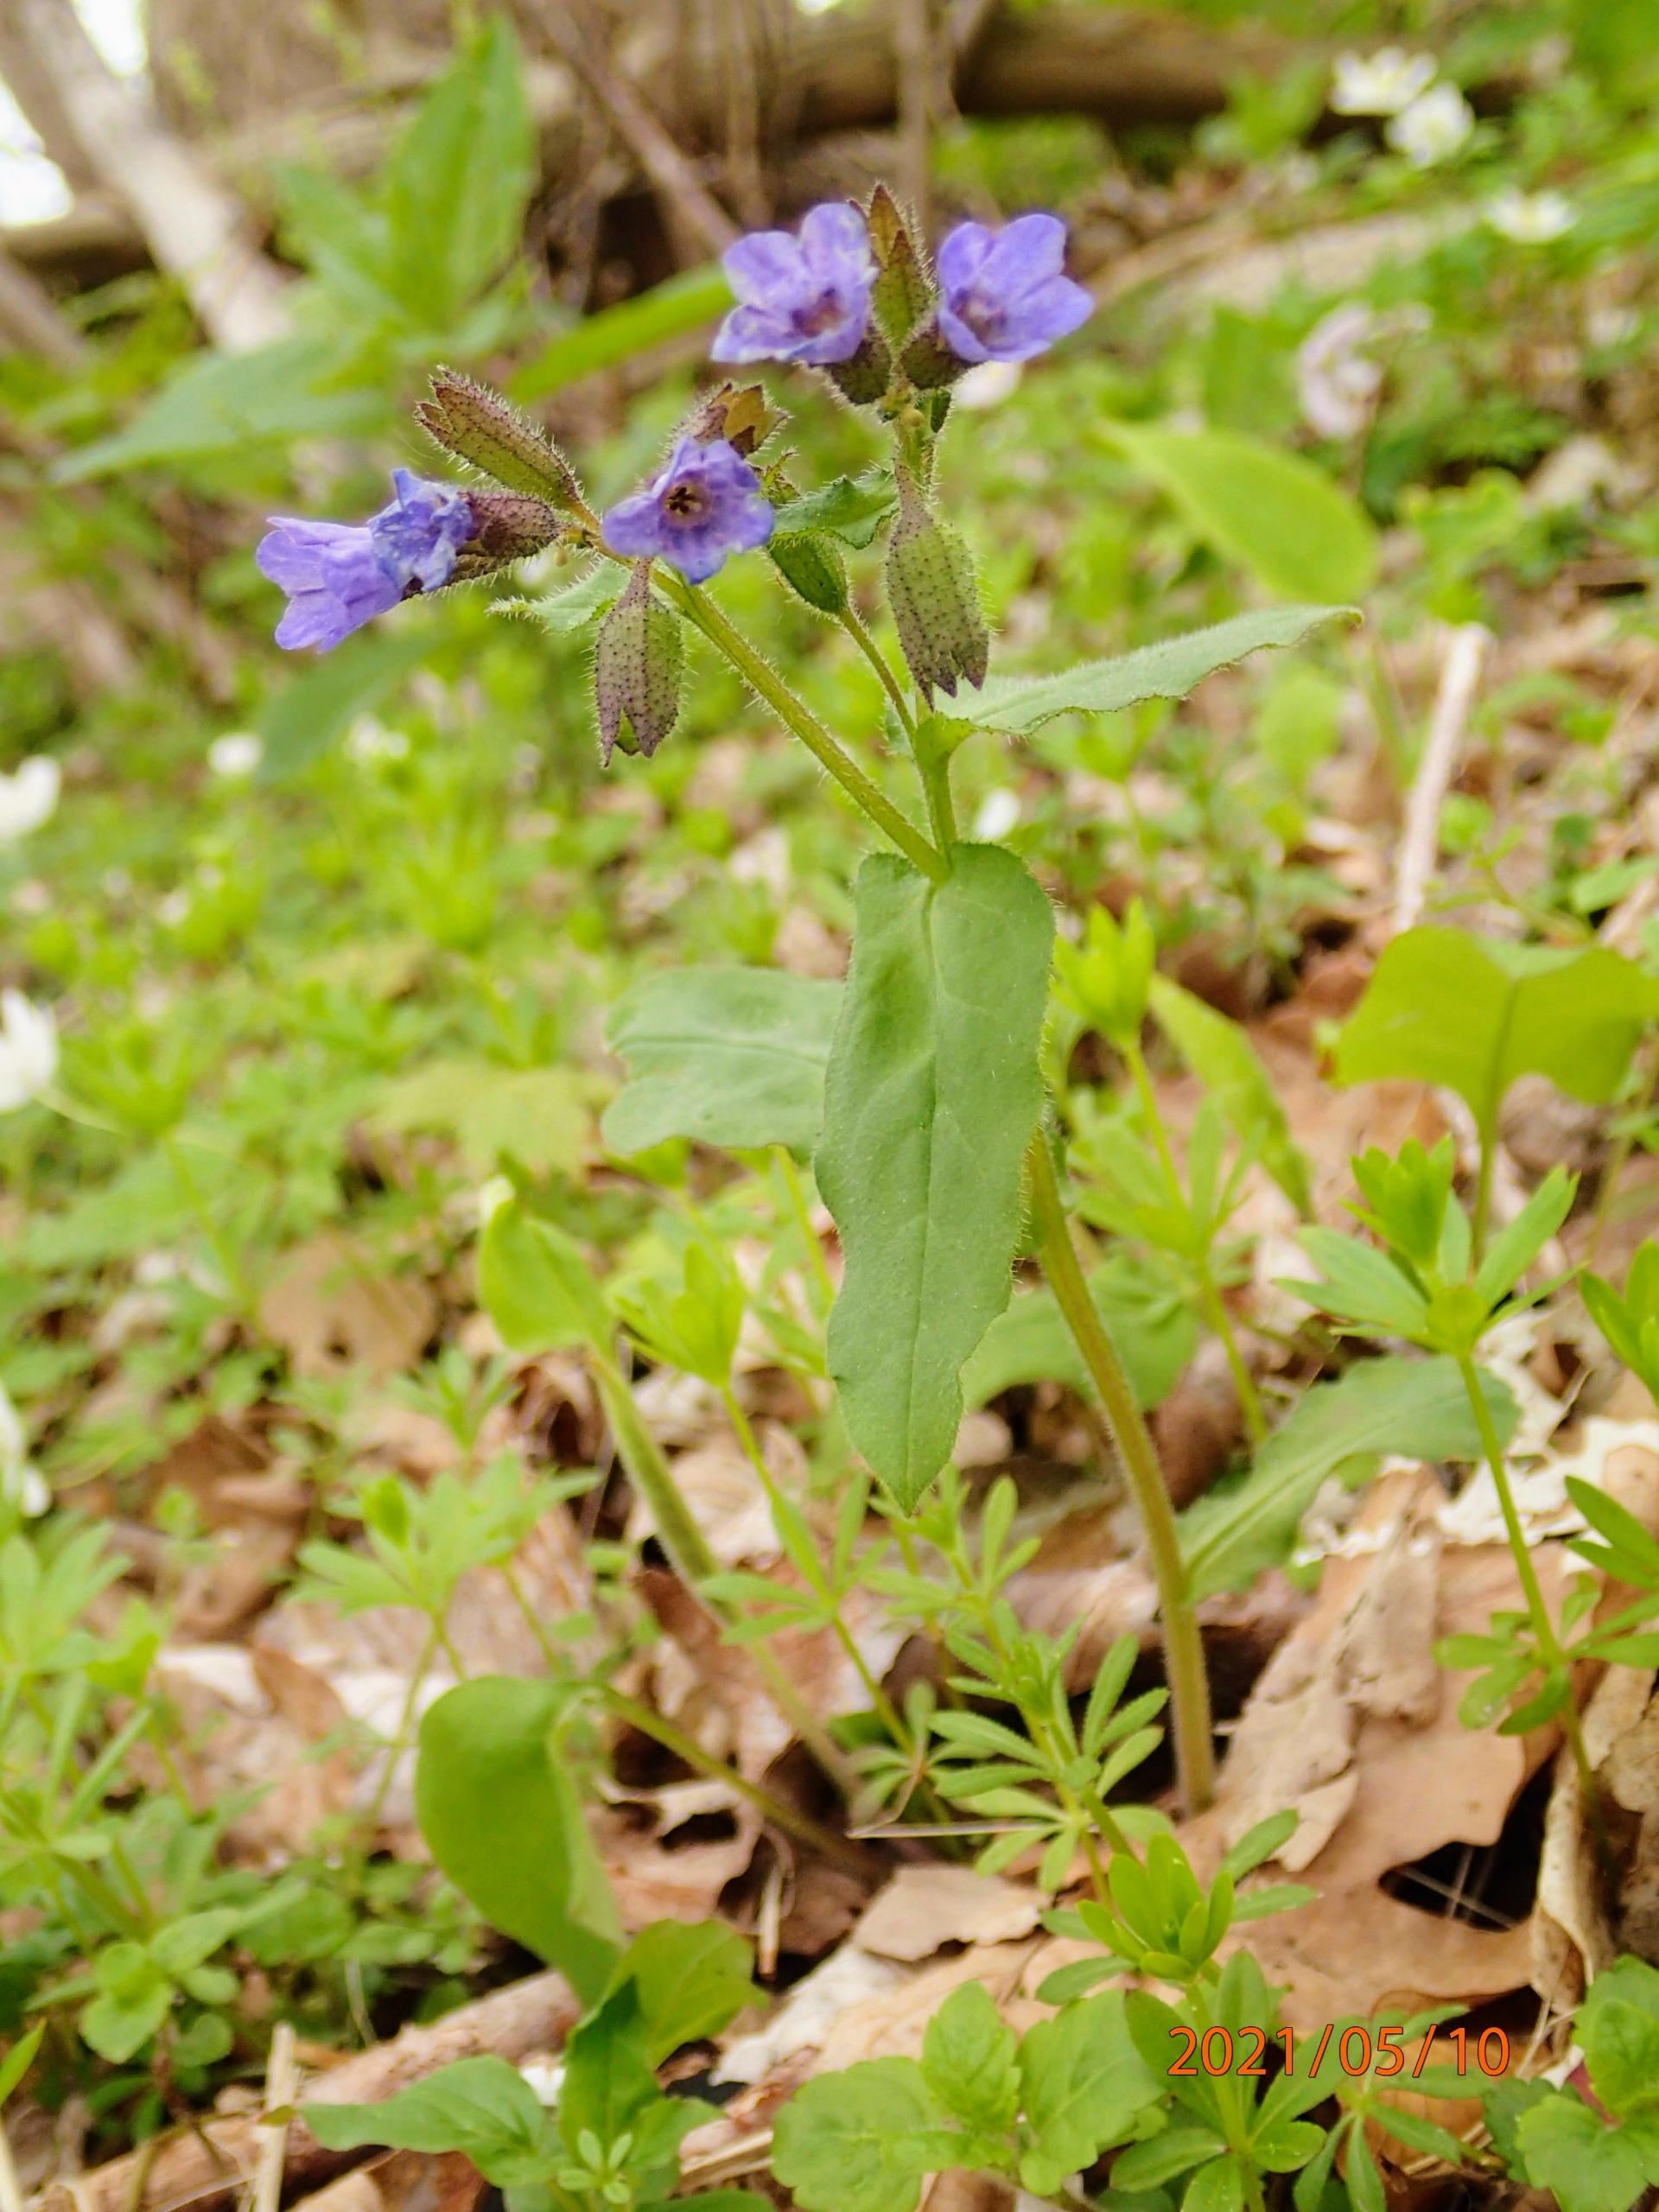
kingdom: Plantae
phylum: Tracheophyta
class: Magnoliopsida
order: Boraginales
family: Boraginaceae
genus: Pulmonaria
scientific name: Pulmonaria obscura
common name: Almindelig lungeurt
